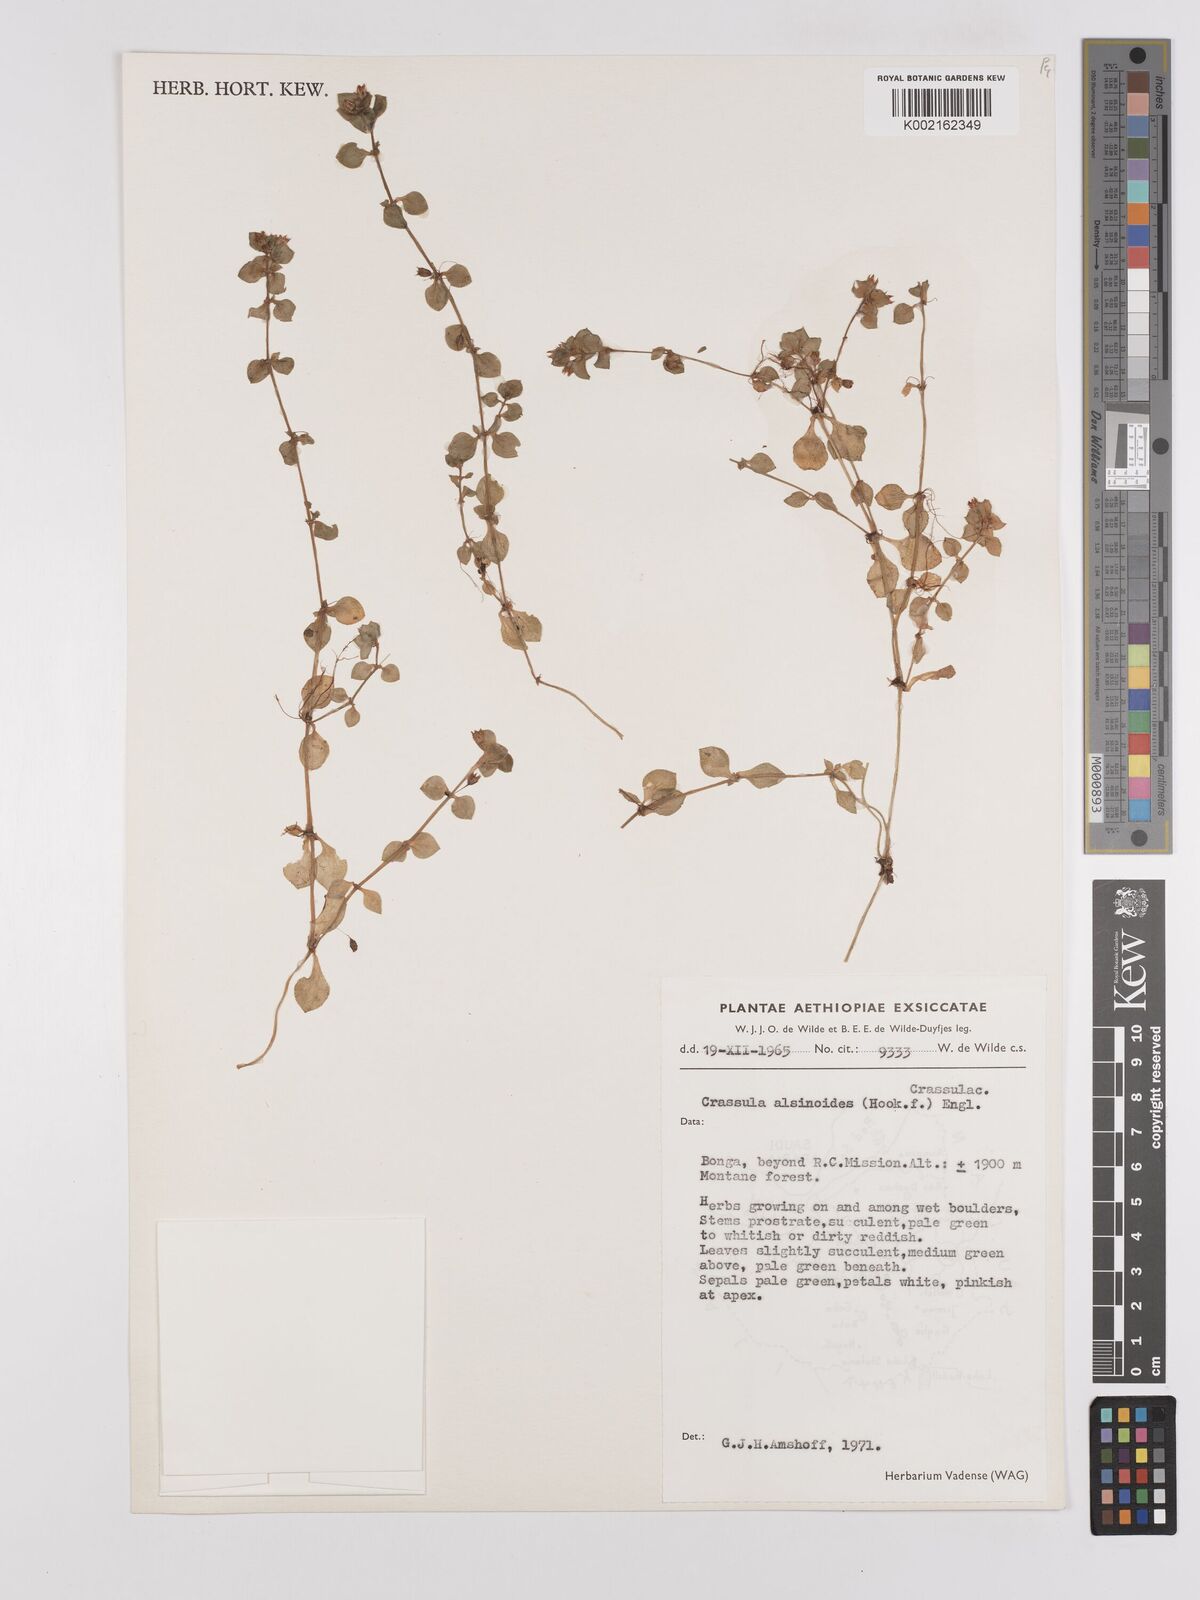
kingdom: Plantae
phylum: Tracheophyta
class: Magnoliopsida
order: Saxifragales
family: Crassulaceae
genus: Crassula
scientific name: Crassula alsinoides
